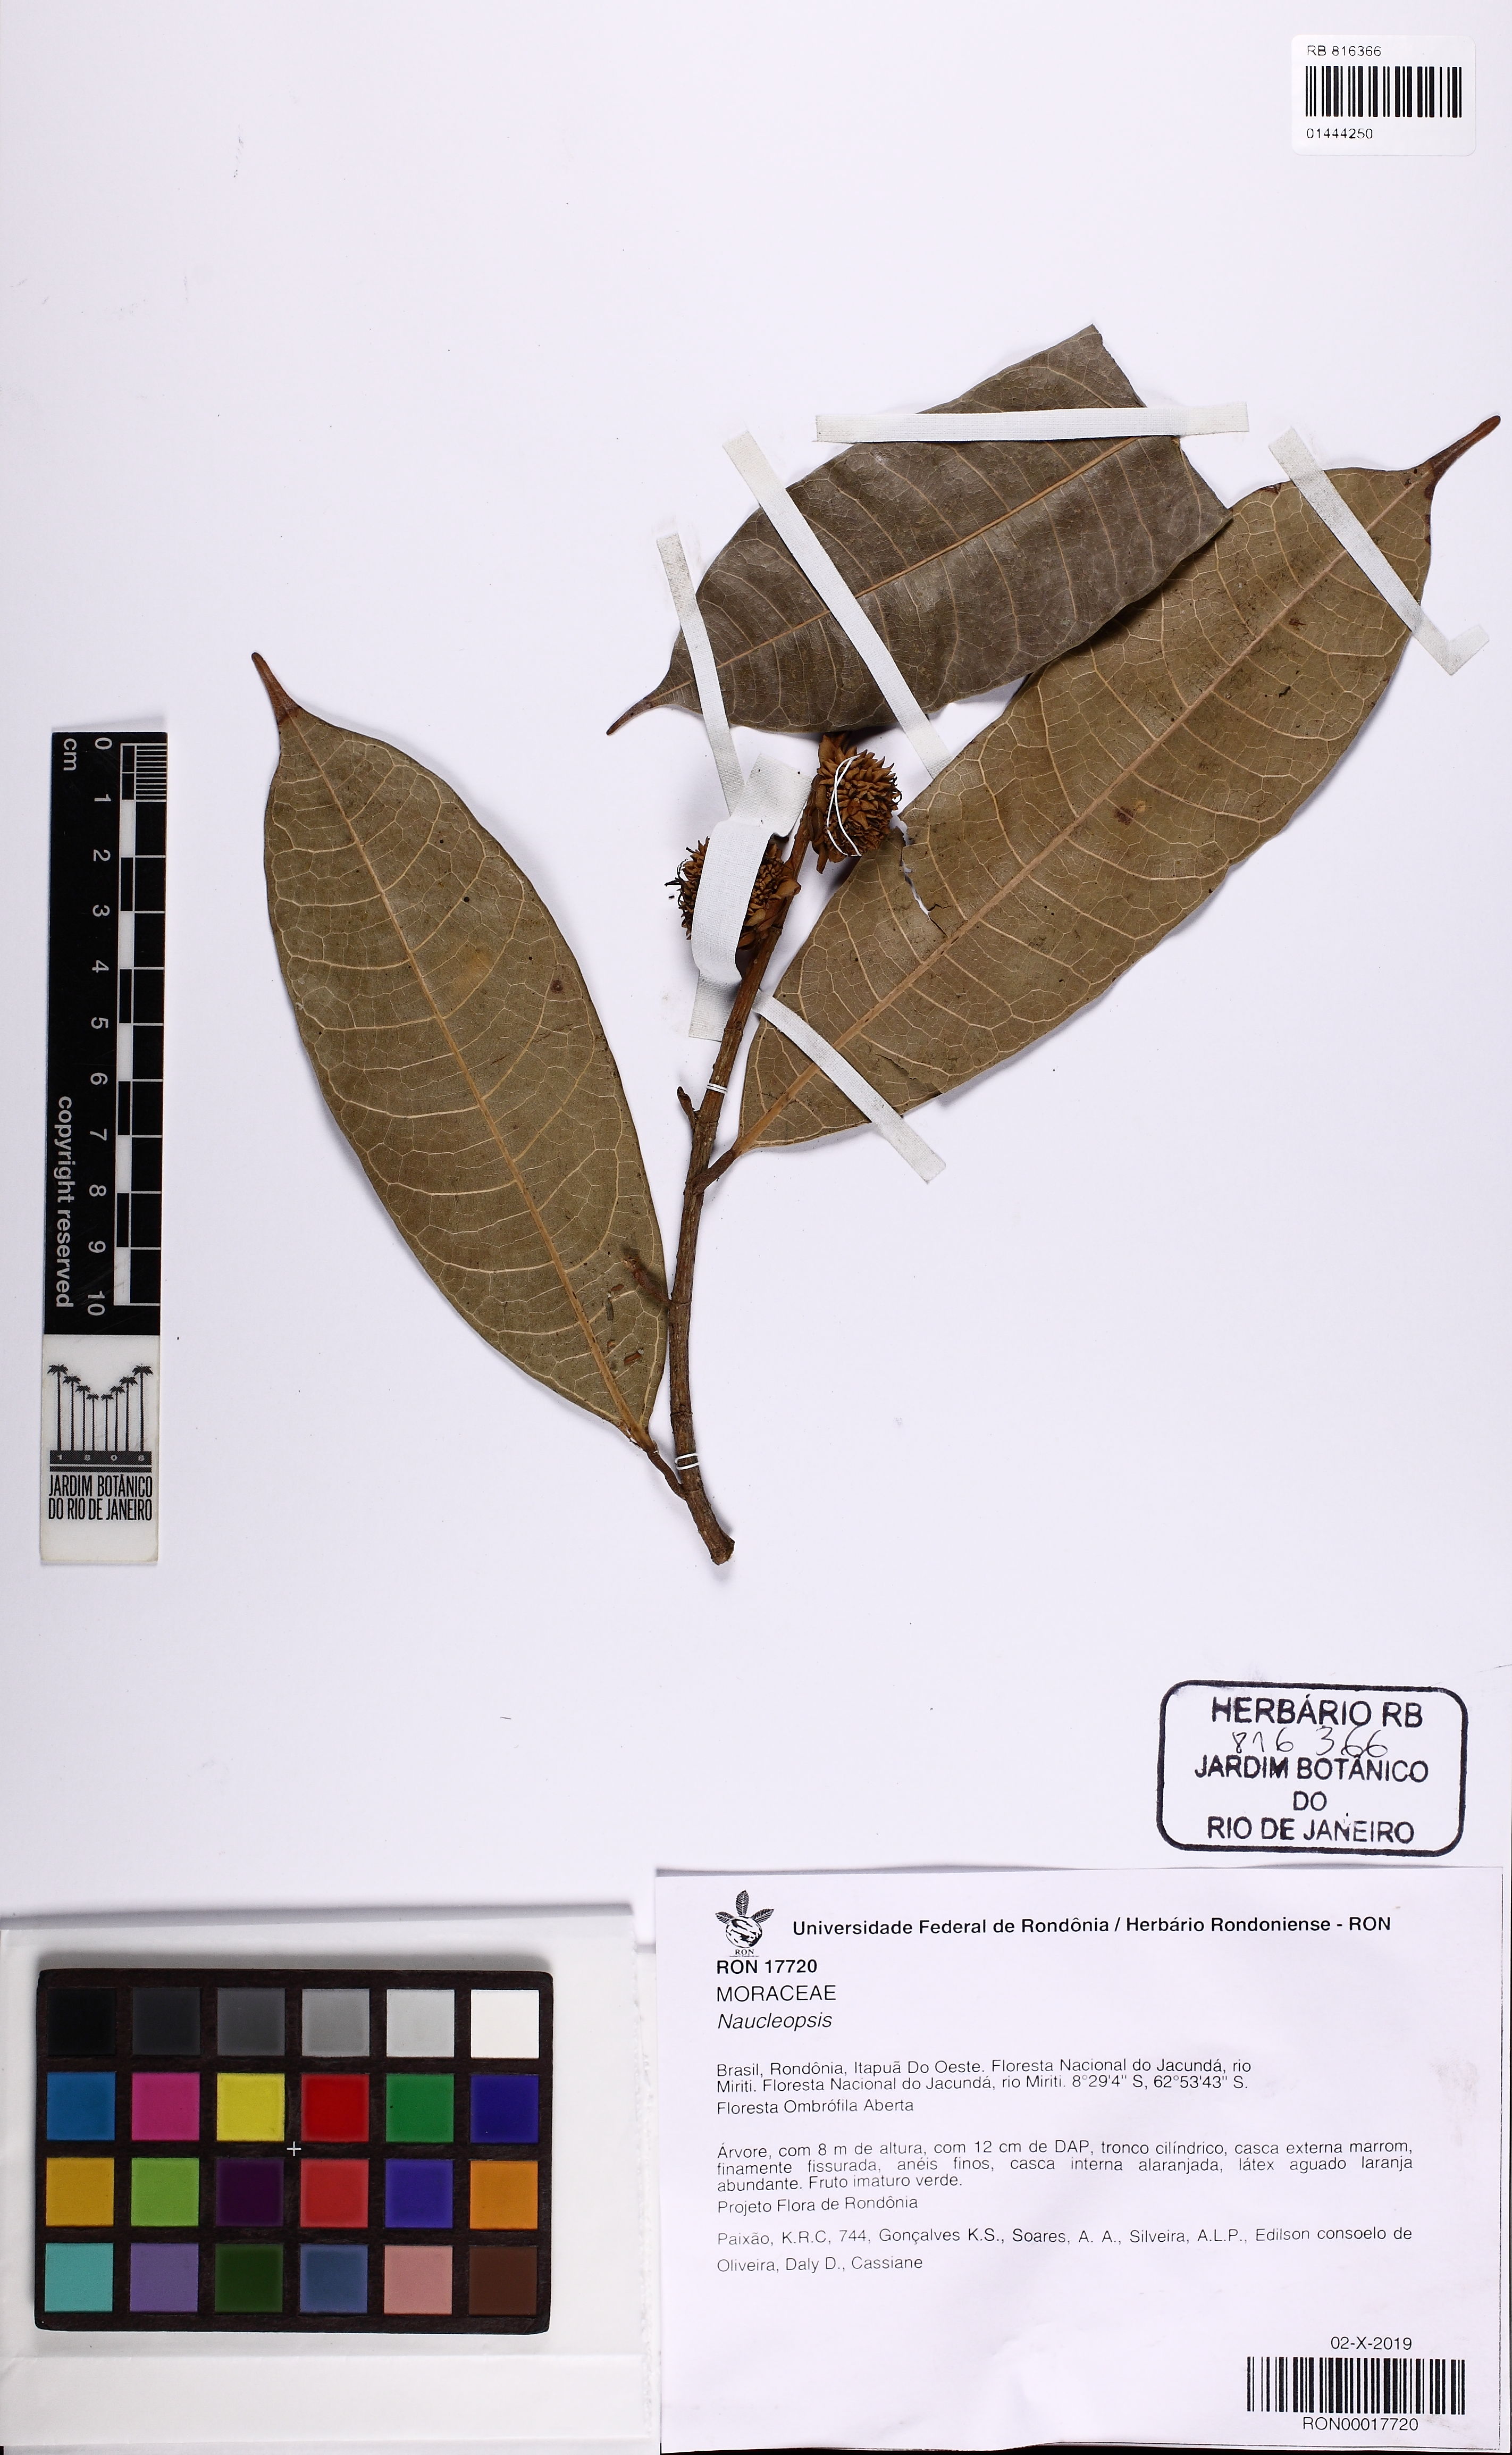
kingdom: Plantae
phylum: Tracheophyta
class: Magnoliopsida
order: Rosales
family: Moraceae
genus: Naucleopsis
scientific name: Naucleopsis
